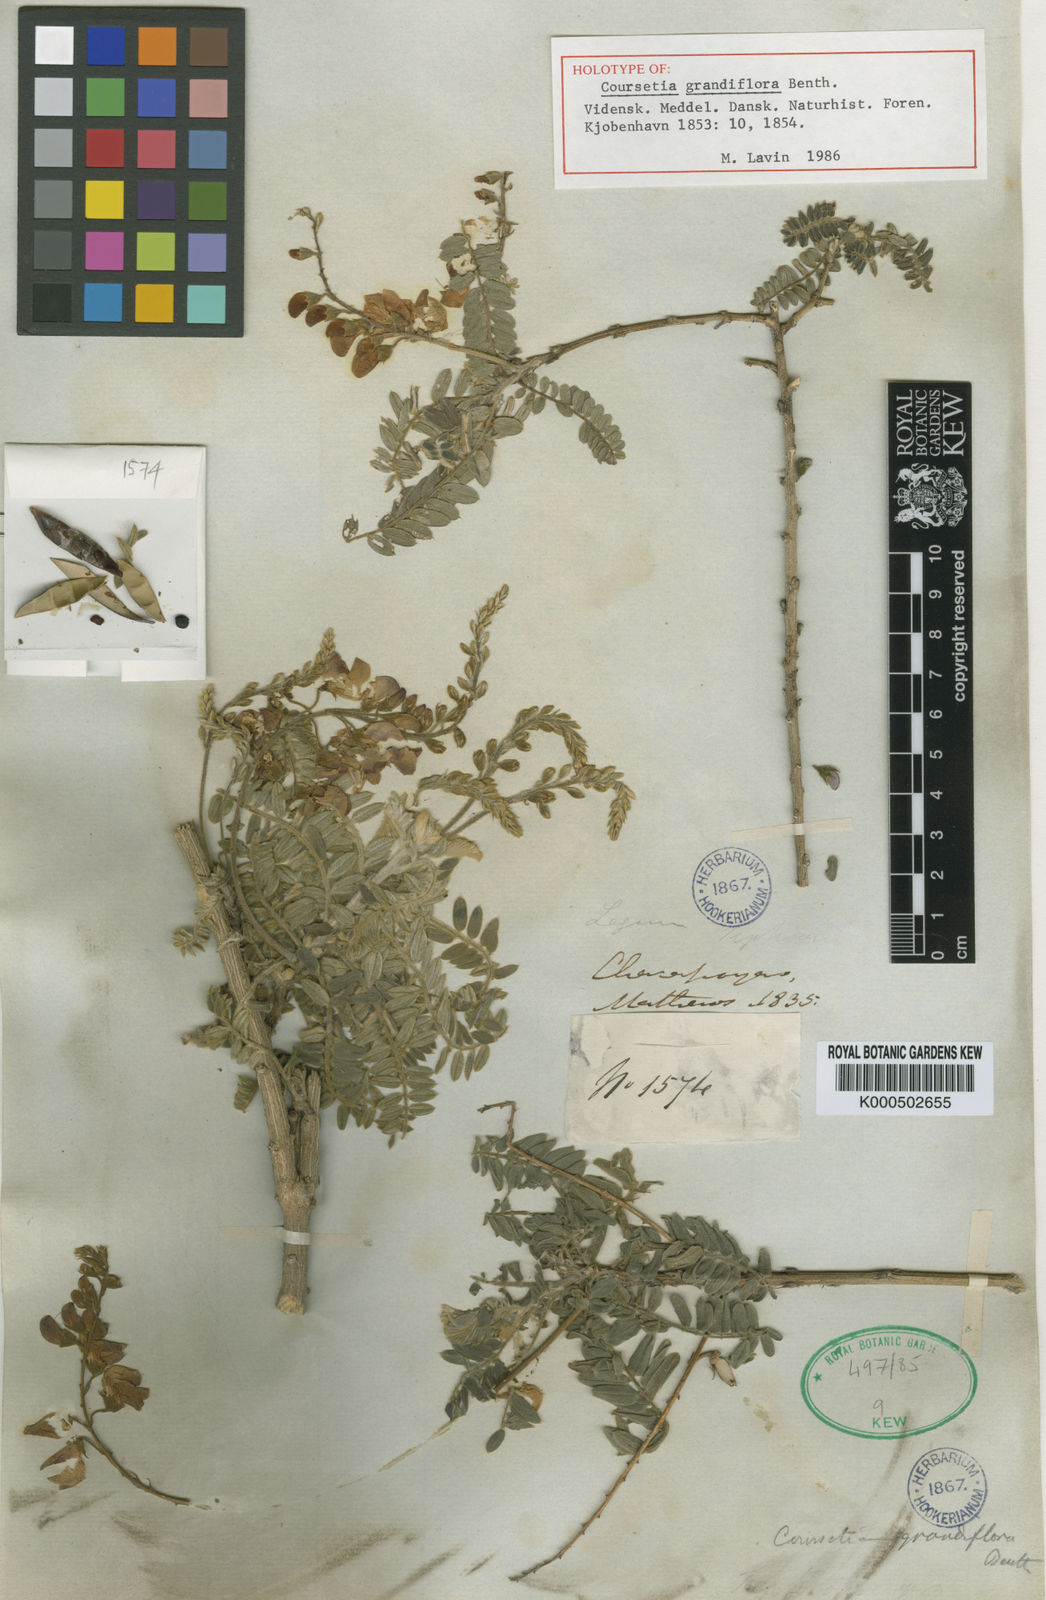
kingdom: Plantae
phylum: Tracheophyta
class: Magnoliopsida
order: Fabales
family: Fabaceae
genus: Coursetia
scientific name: Coursetia
